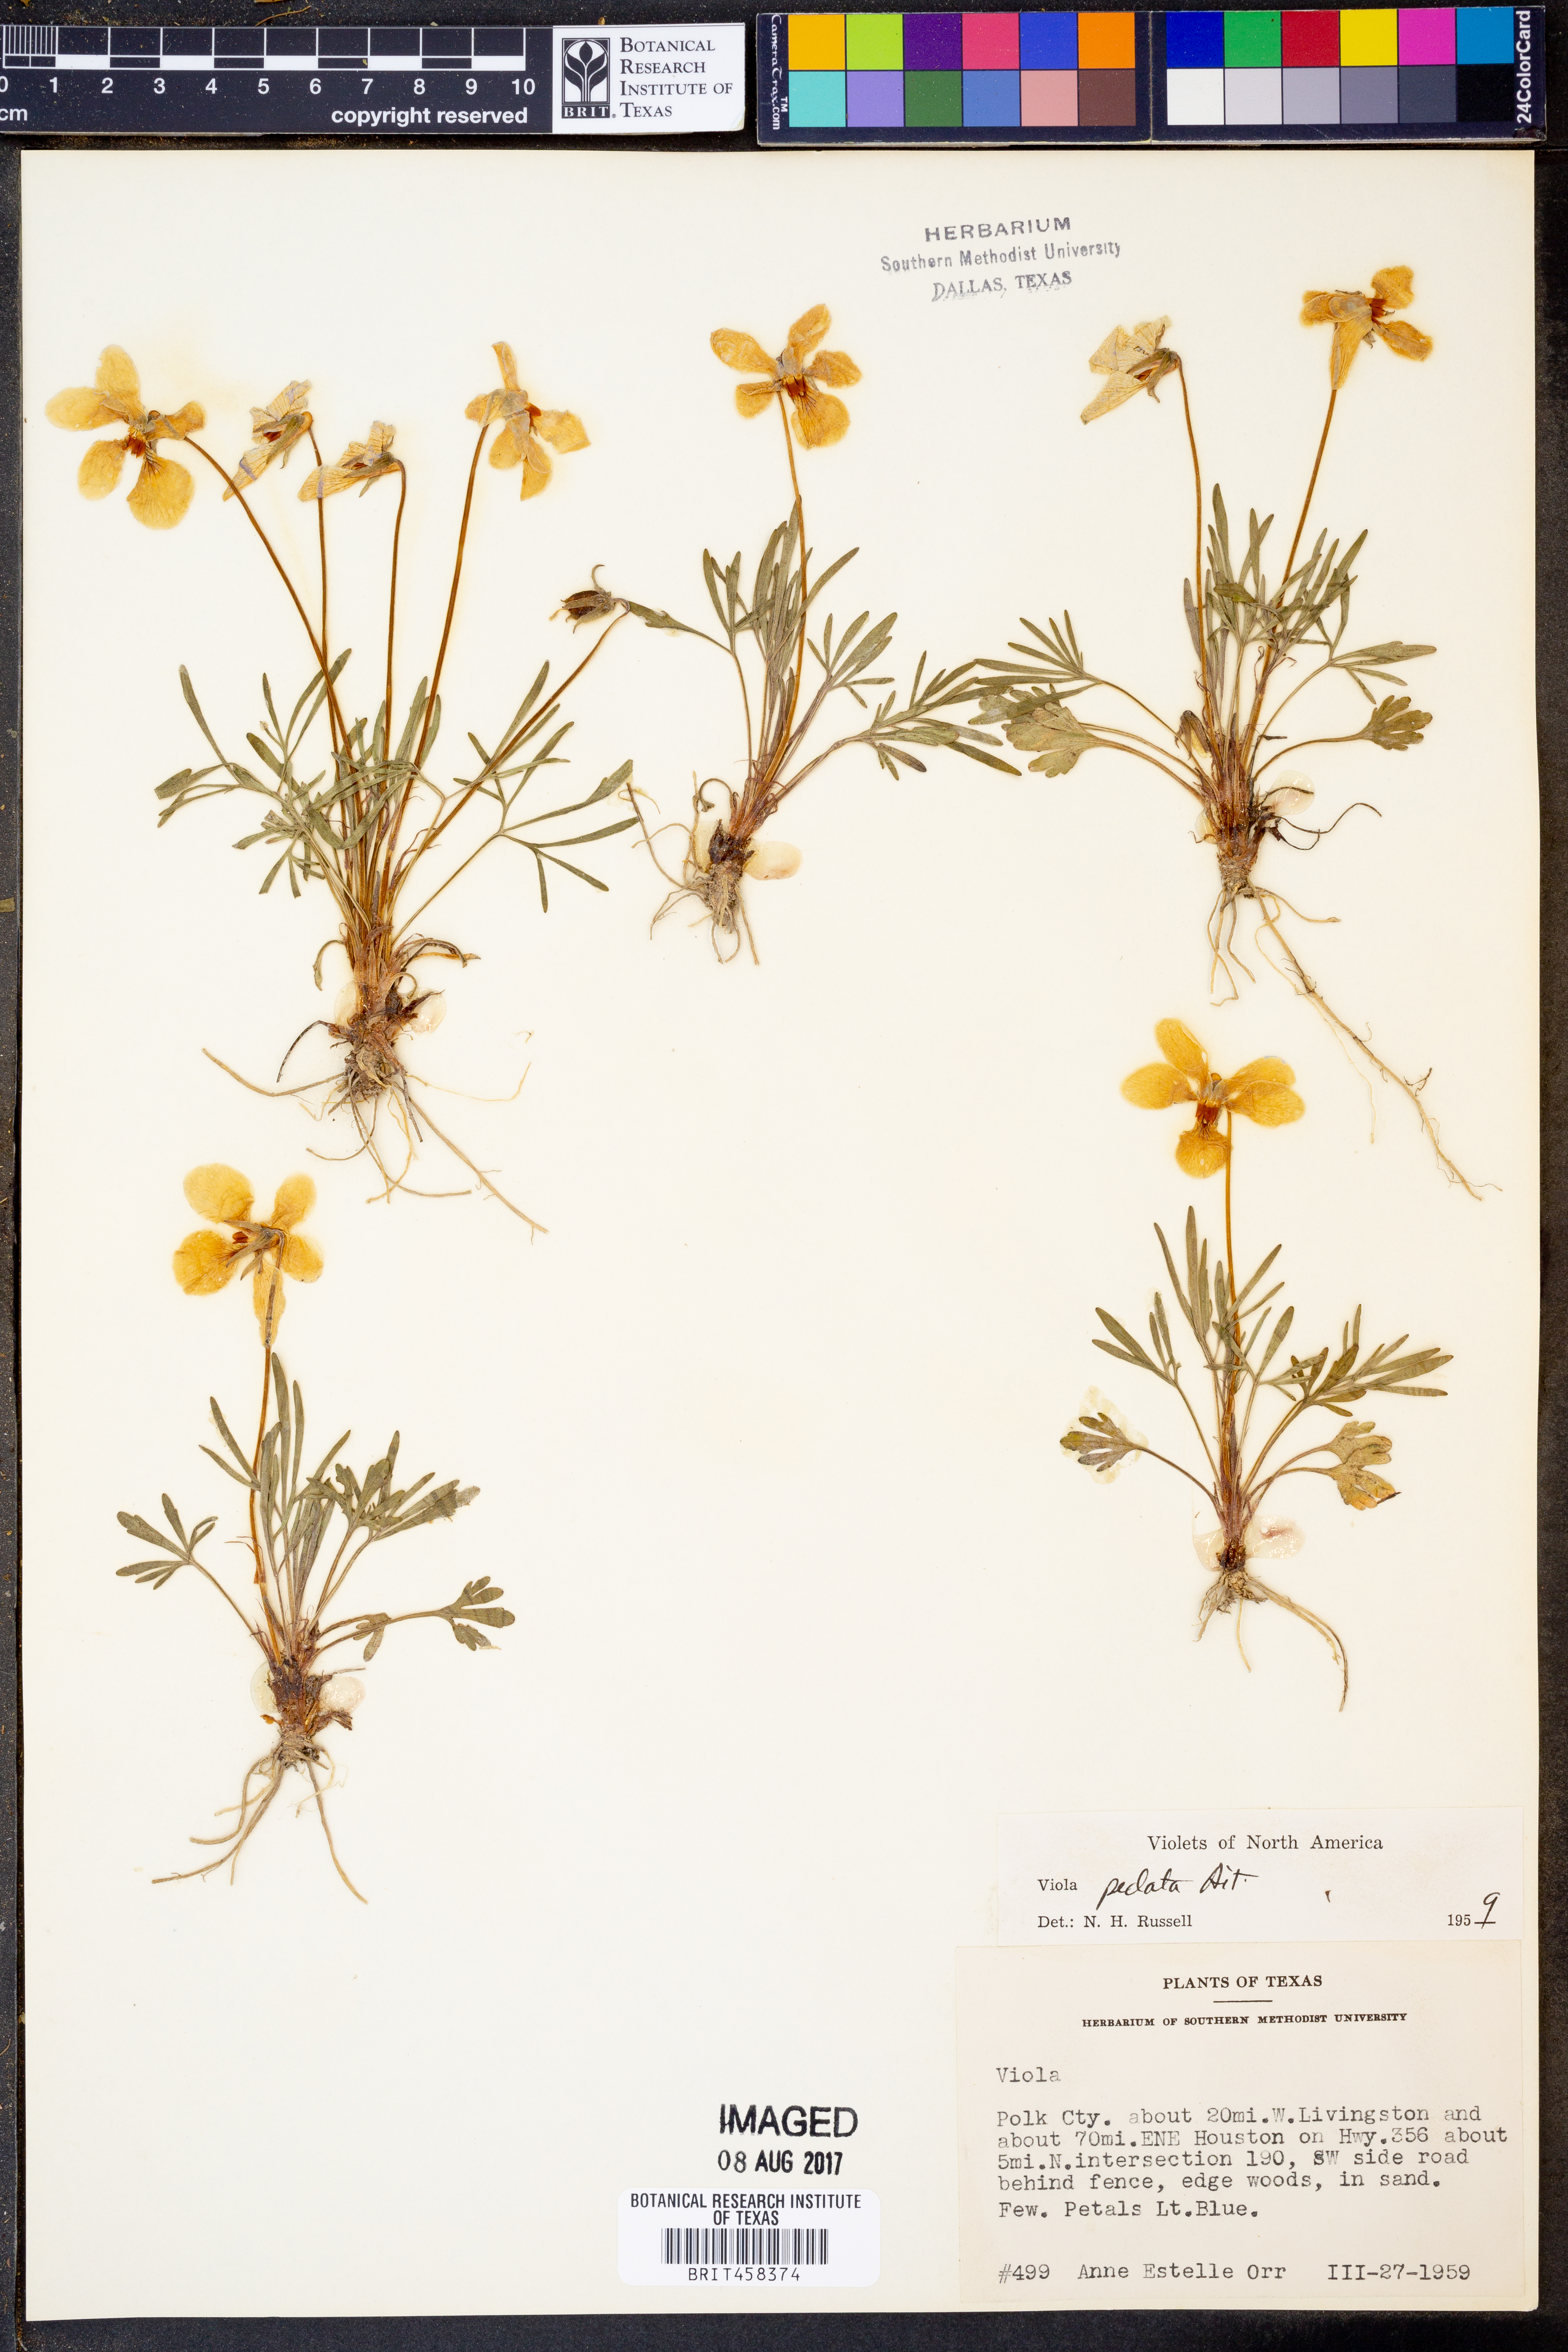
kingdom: Plantae
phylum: Tracheophyta
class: Magnoliopsida
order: Malpighiales
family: Violaceae
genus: Viola
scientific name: Viola pedata
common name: Pansy violet
